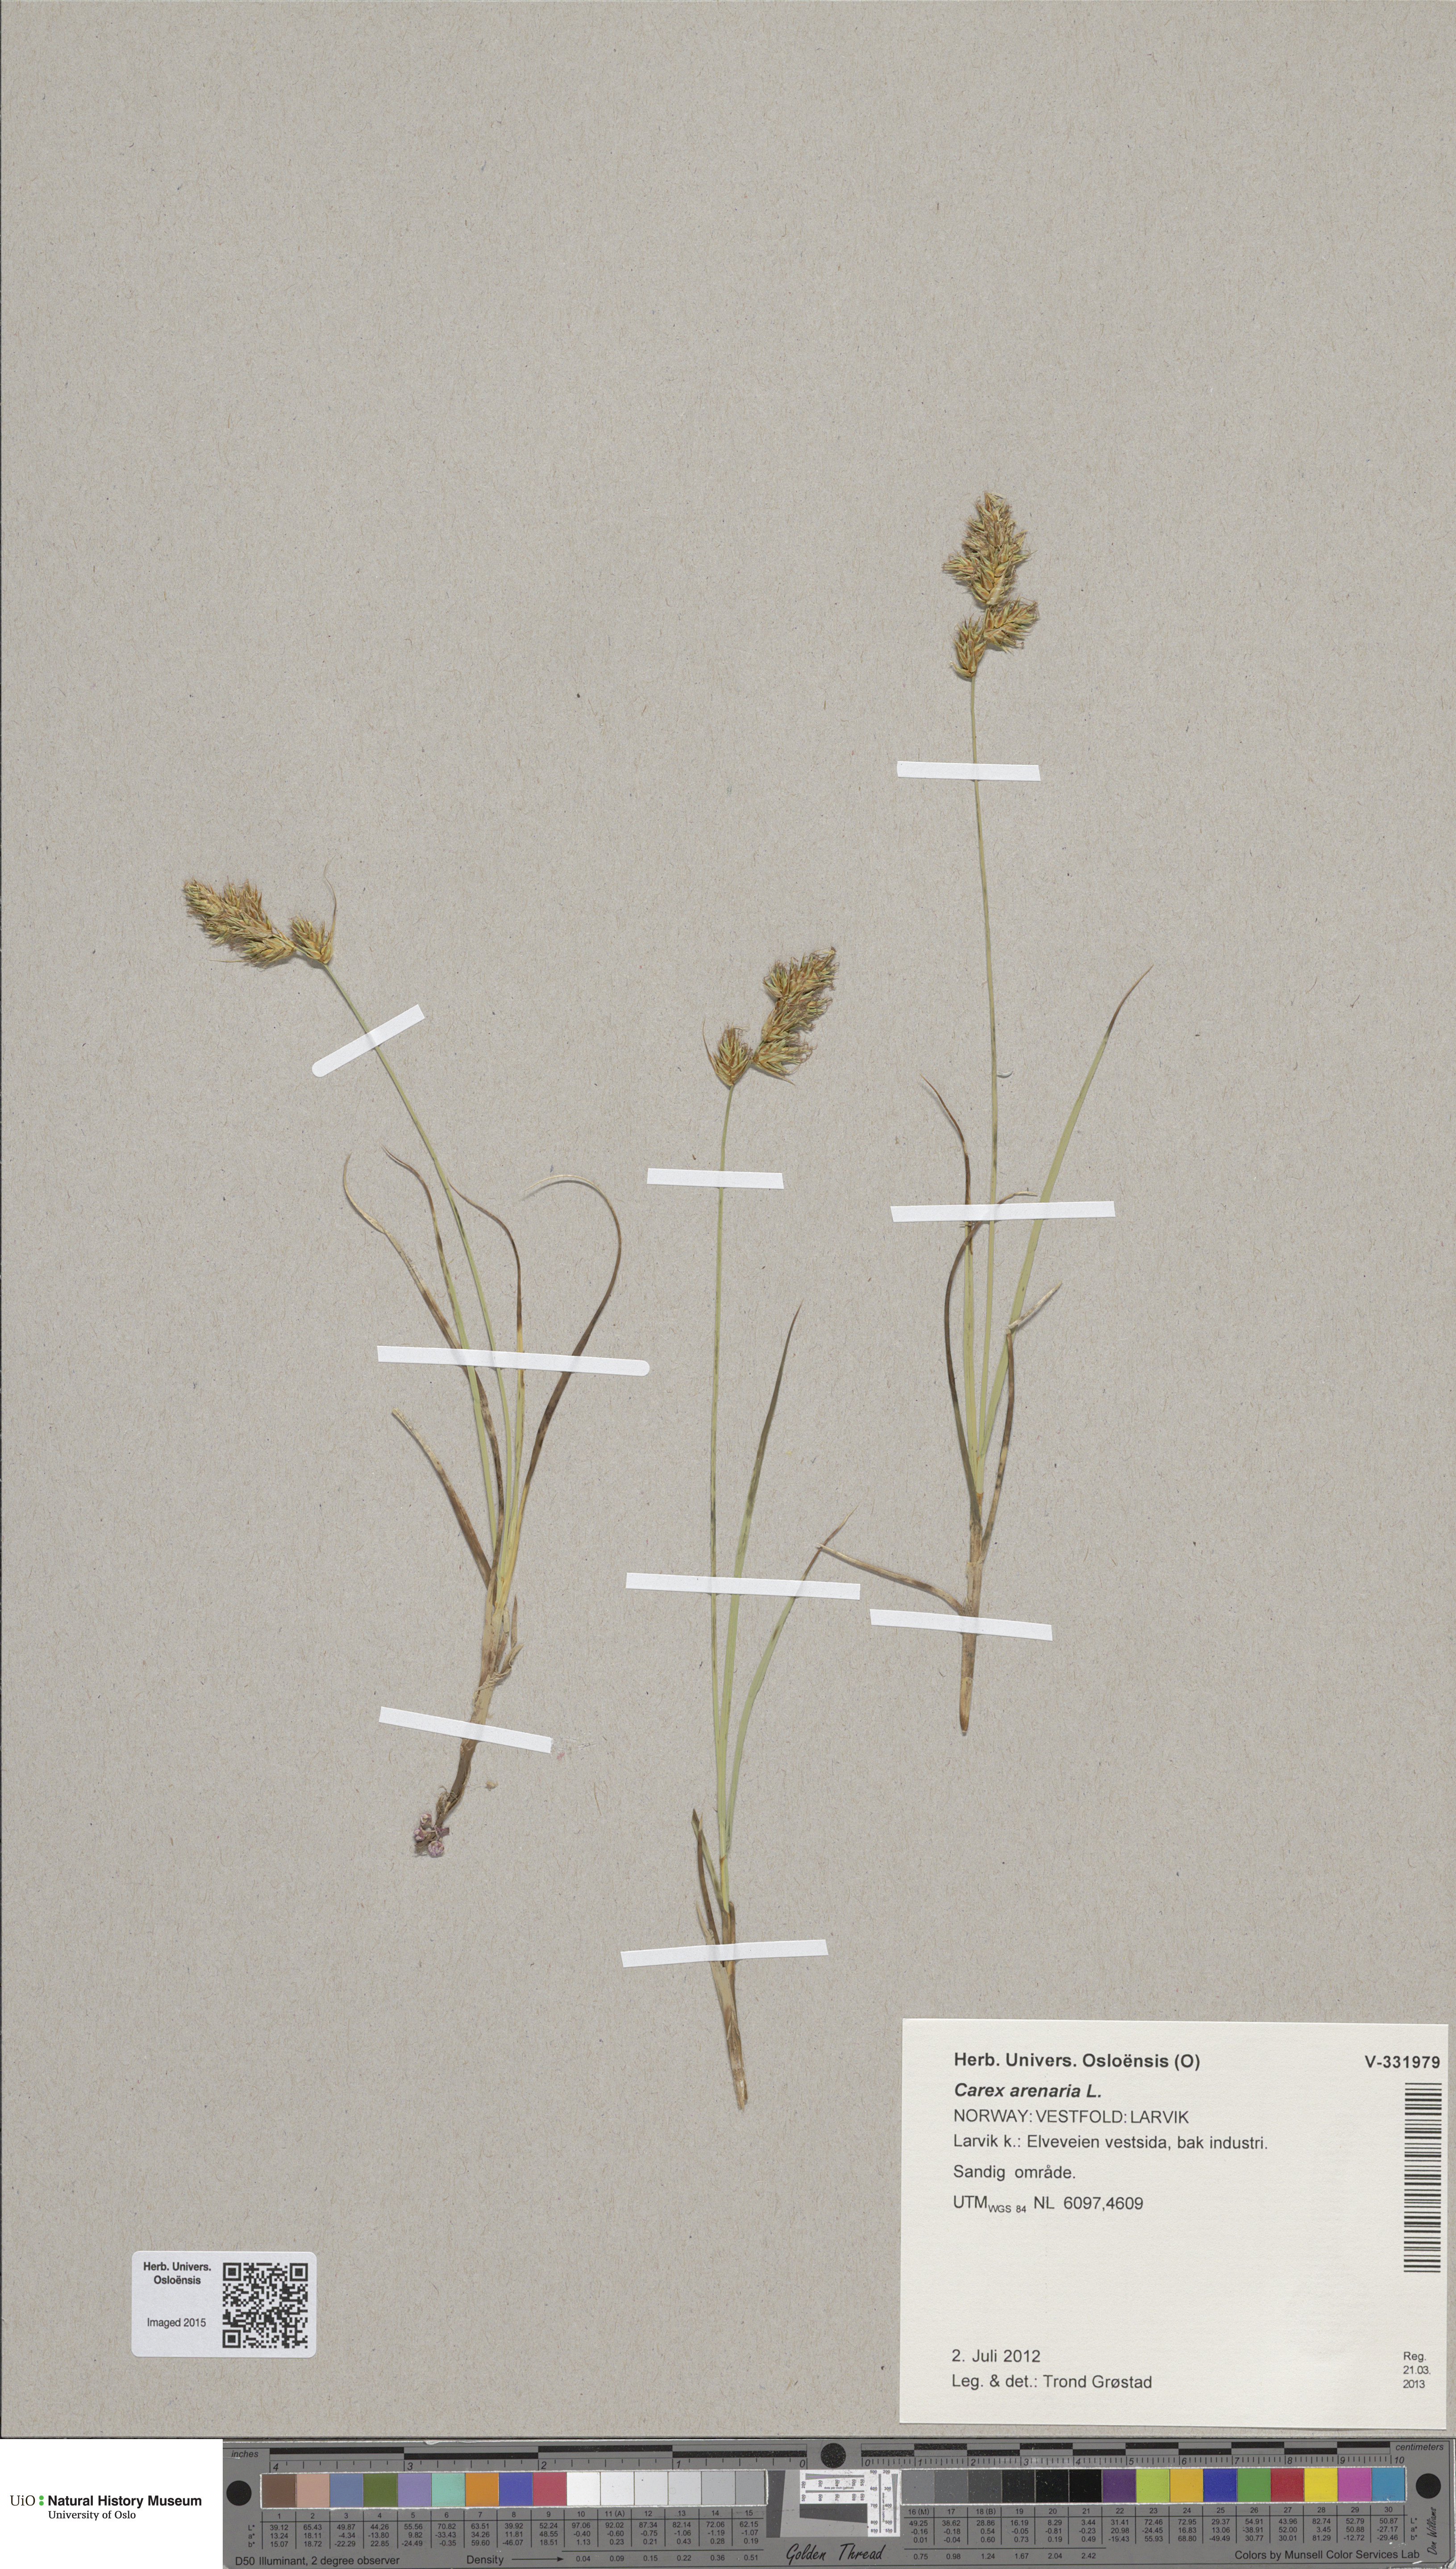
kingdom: Plantae
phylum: Tracheophyta
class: Liliopsida
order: Poales
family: Cyperaceae
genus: Carex
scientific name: Carex arenaria
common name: Sand sedge
